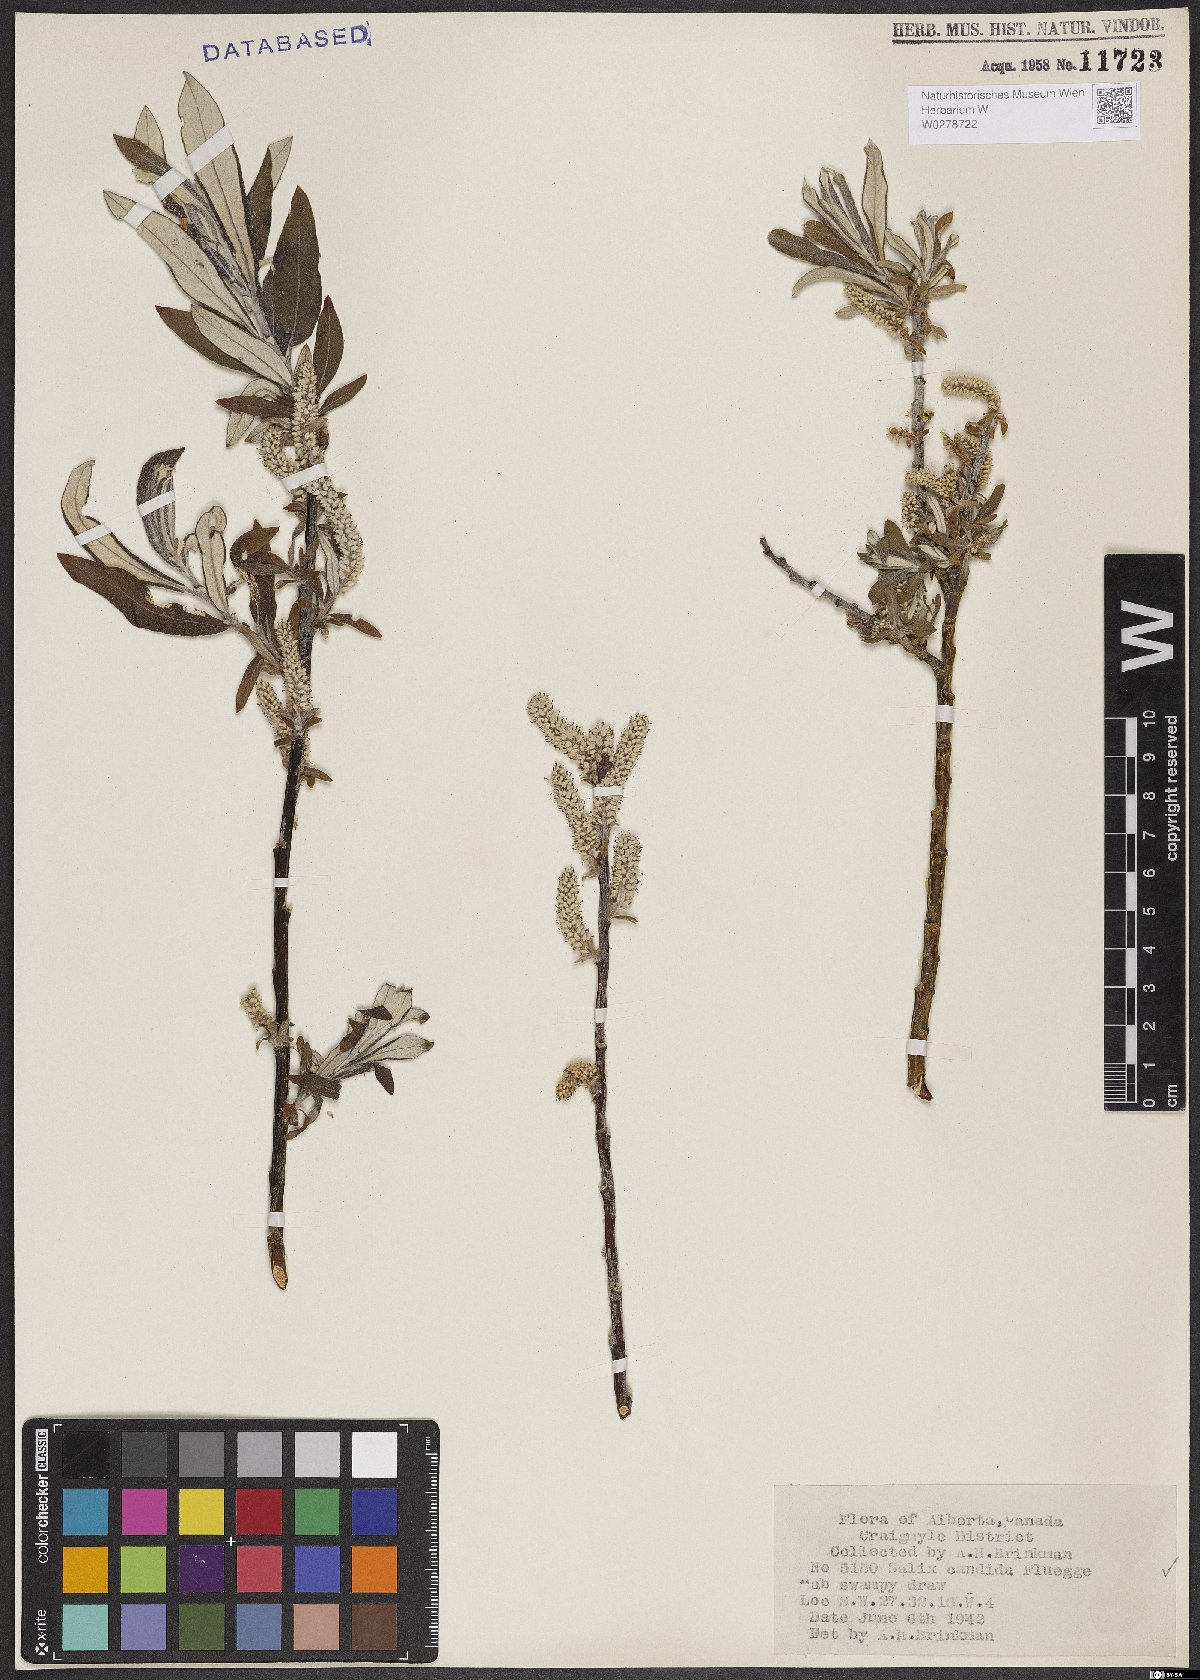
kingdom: Plantae
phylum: Tracheophyta
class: Magnoliopsida
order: Malpighiales
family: Salicaceae
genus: Salix
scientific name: Salix candida
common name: Hoary willow
